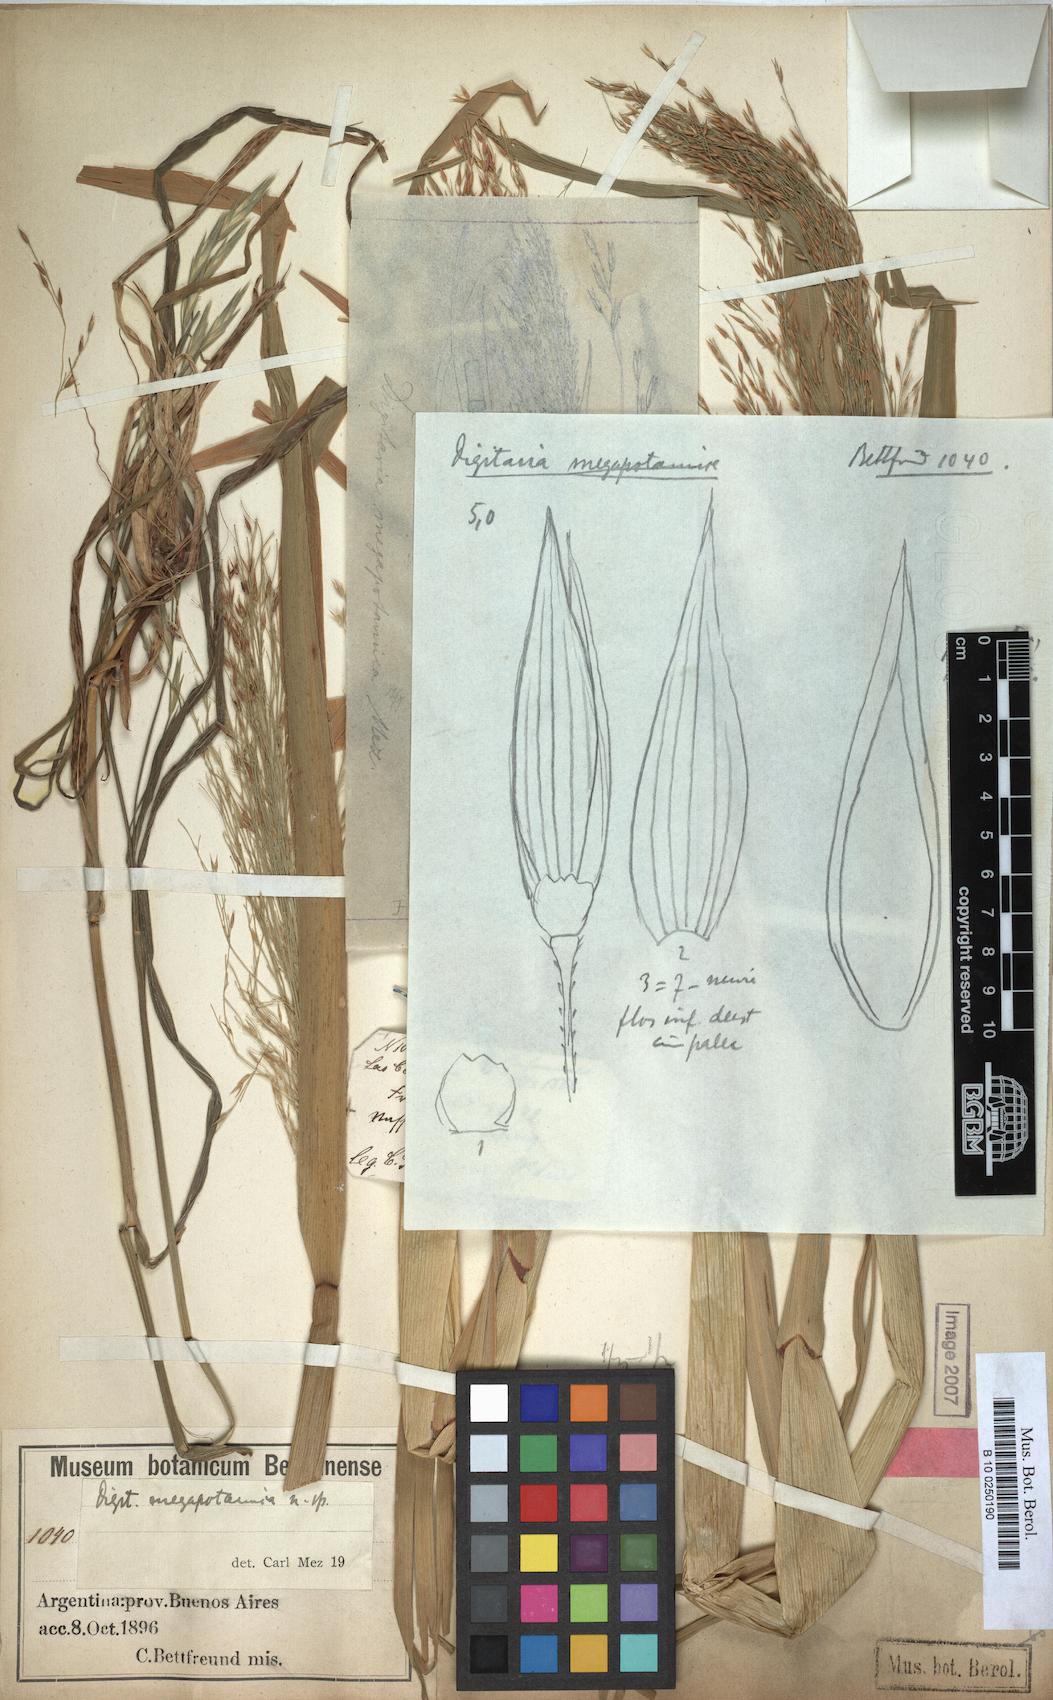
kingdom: Plantae
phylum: Tracheophyta
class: Liliopsida
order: Poales
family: Poaceae
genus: Louisiella
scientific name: Louisiella elephantipes
